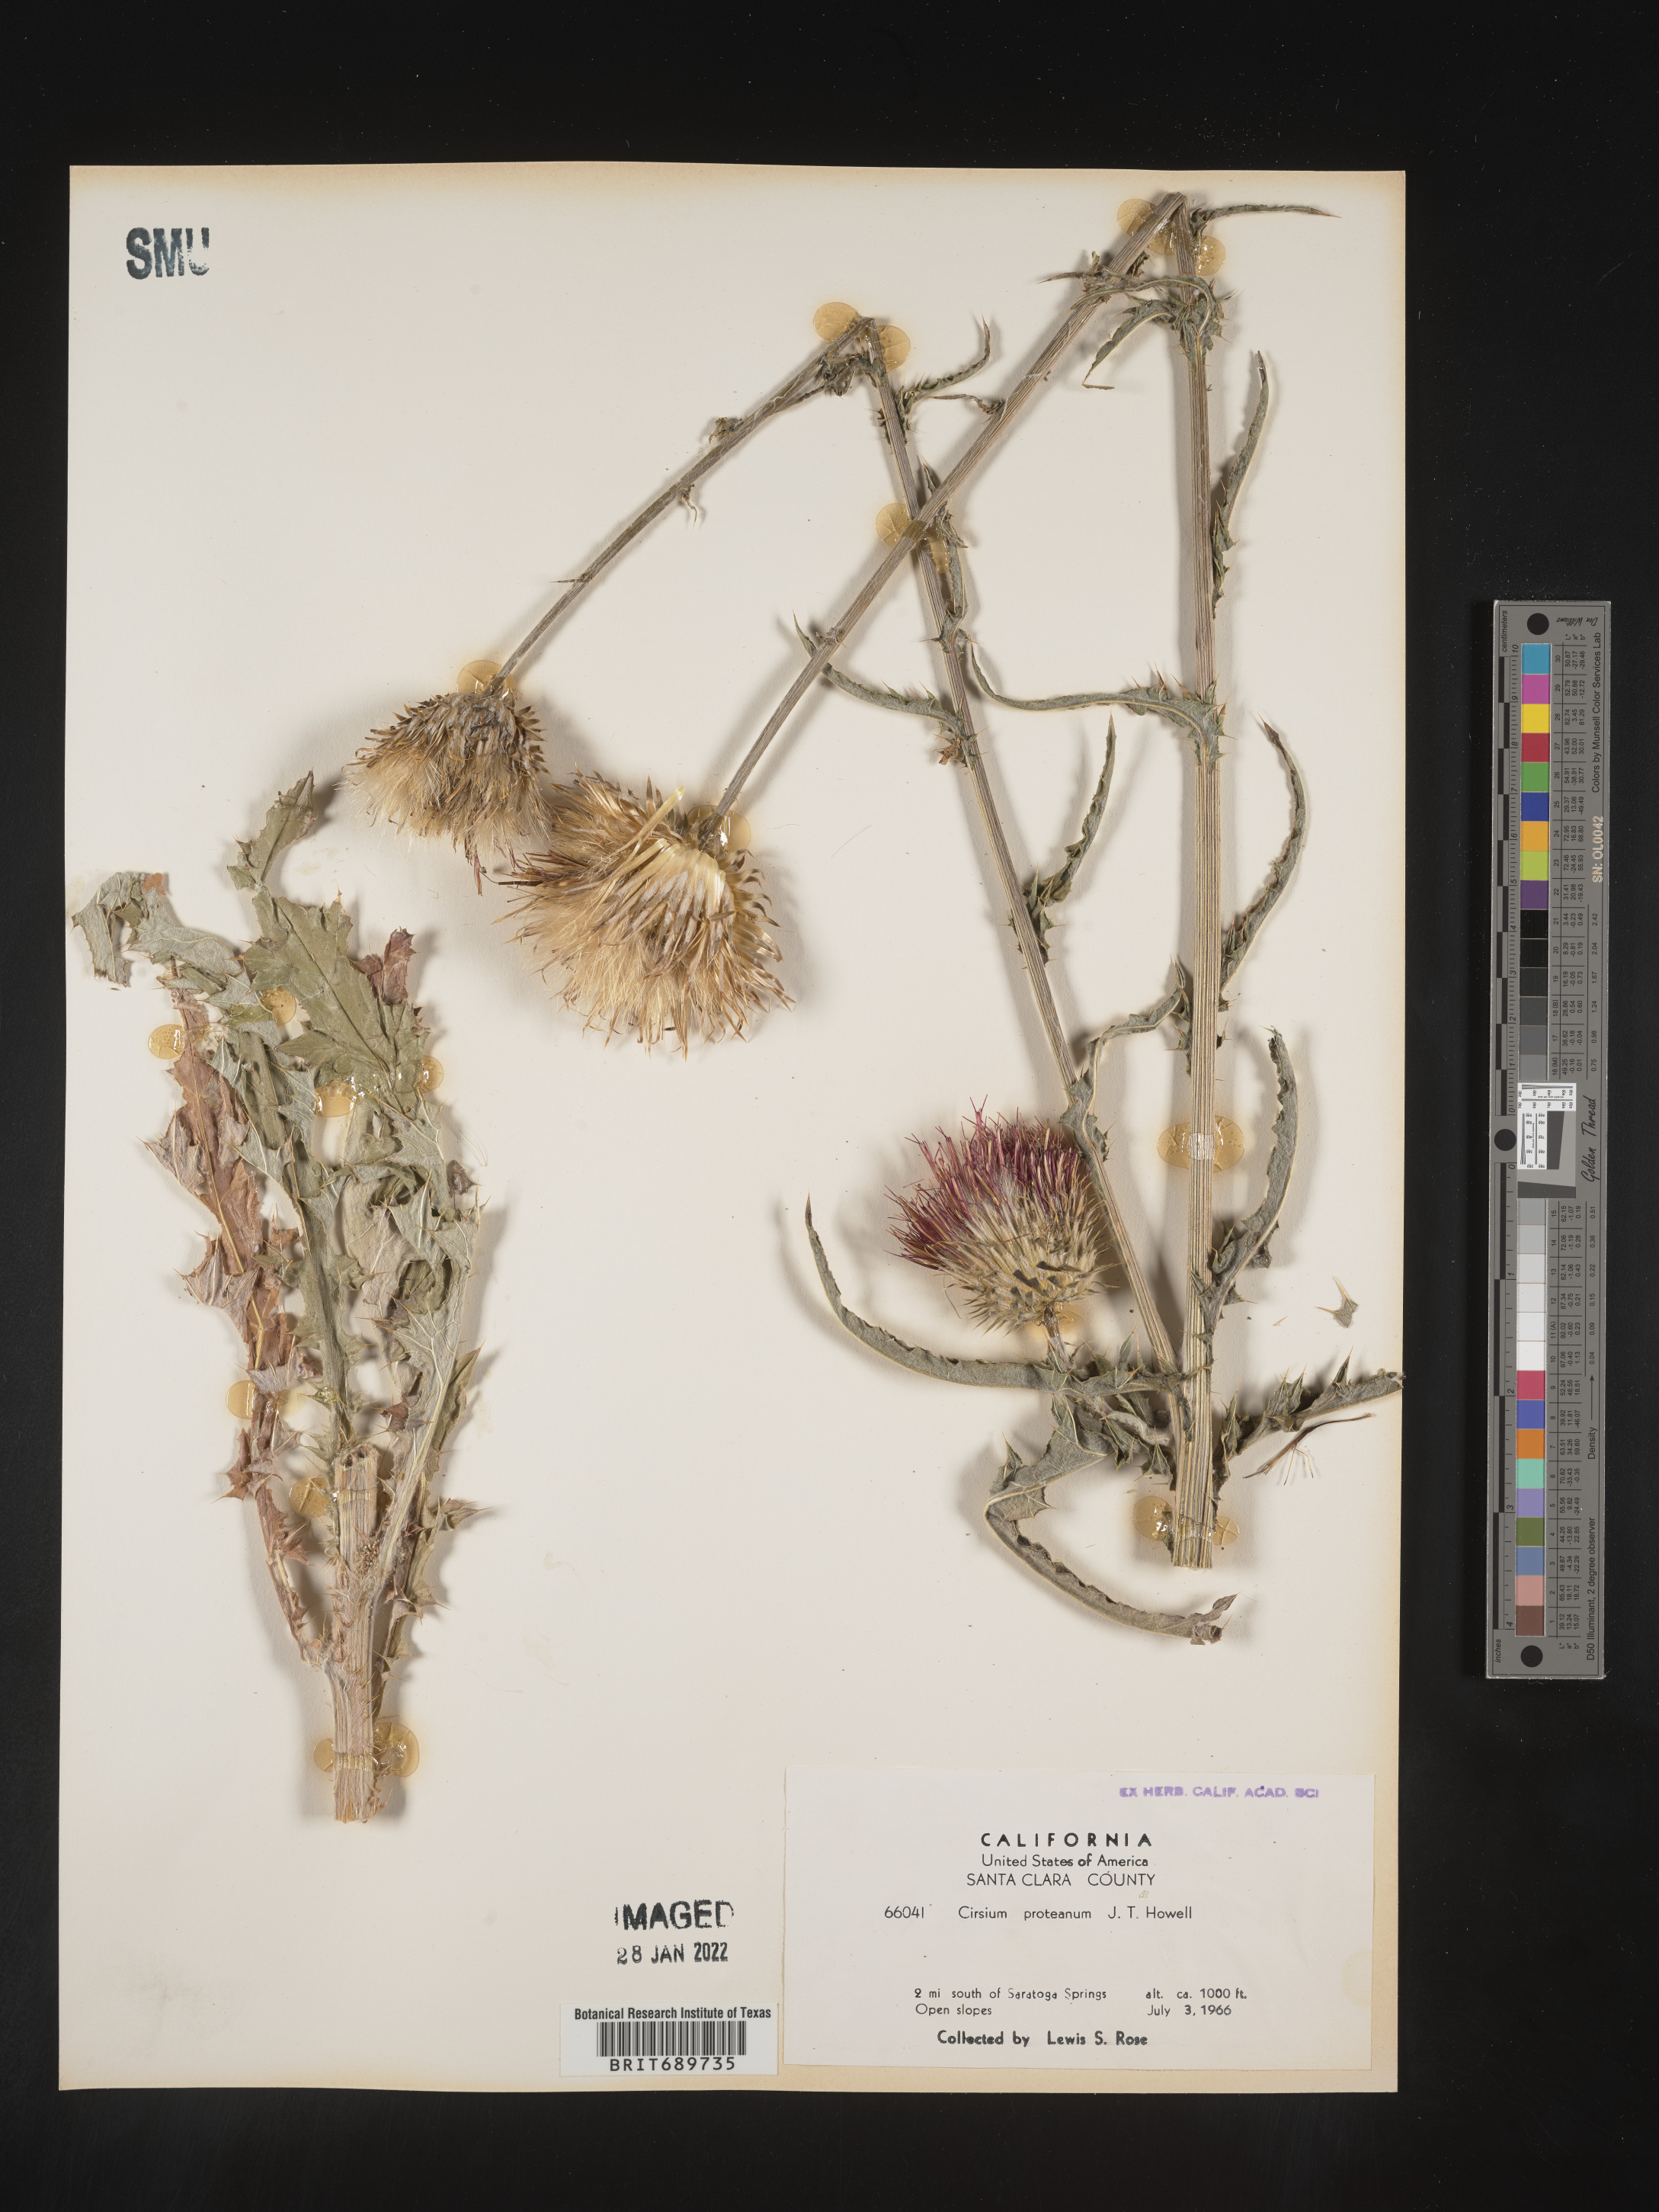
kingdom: Plantae
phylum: Tracheophyta
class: Magnoliopsida
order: Asterales
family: Asteraceae
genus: Cirsium
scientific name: Cirsium occidentale
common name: Western thistle
